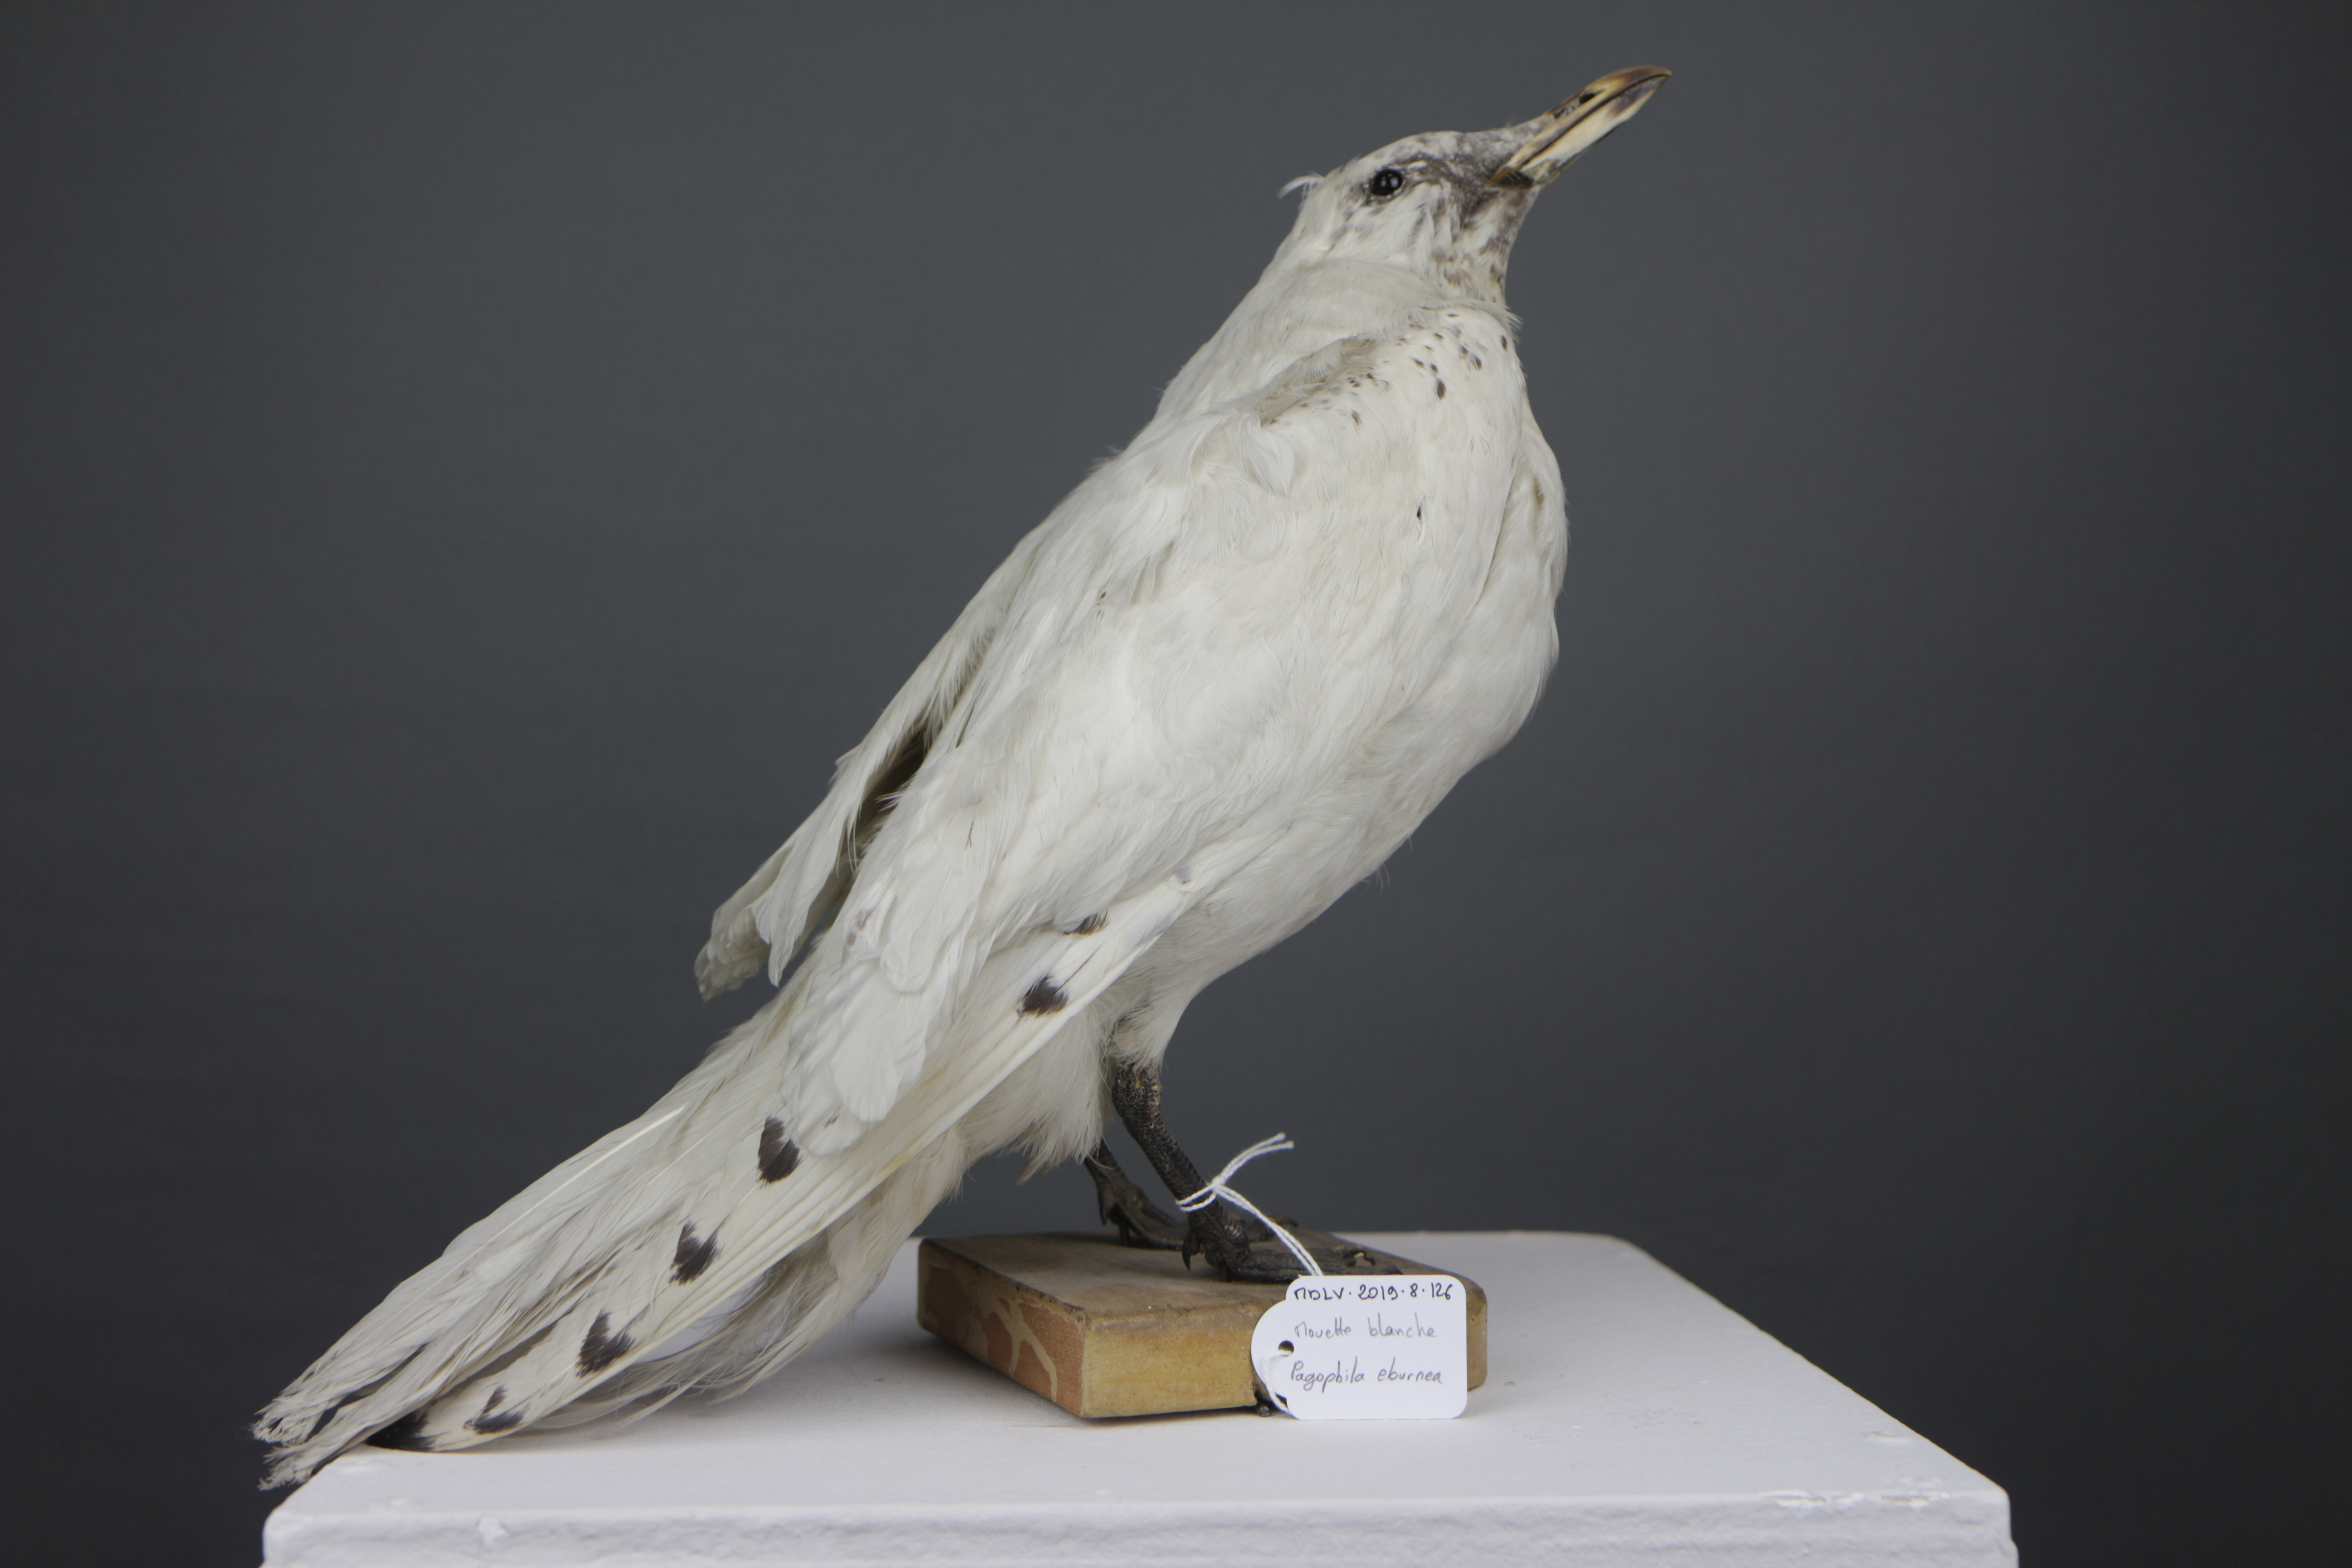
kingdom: Animalia
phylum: Chordata
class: Aves
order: Charadriiformes
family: Laridae
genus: Pagophila
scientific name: Pagophila eburnea
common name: Ivory gull
